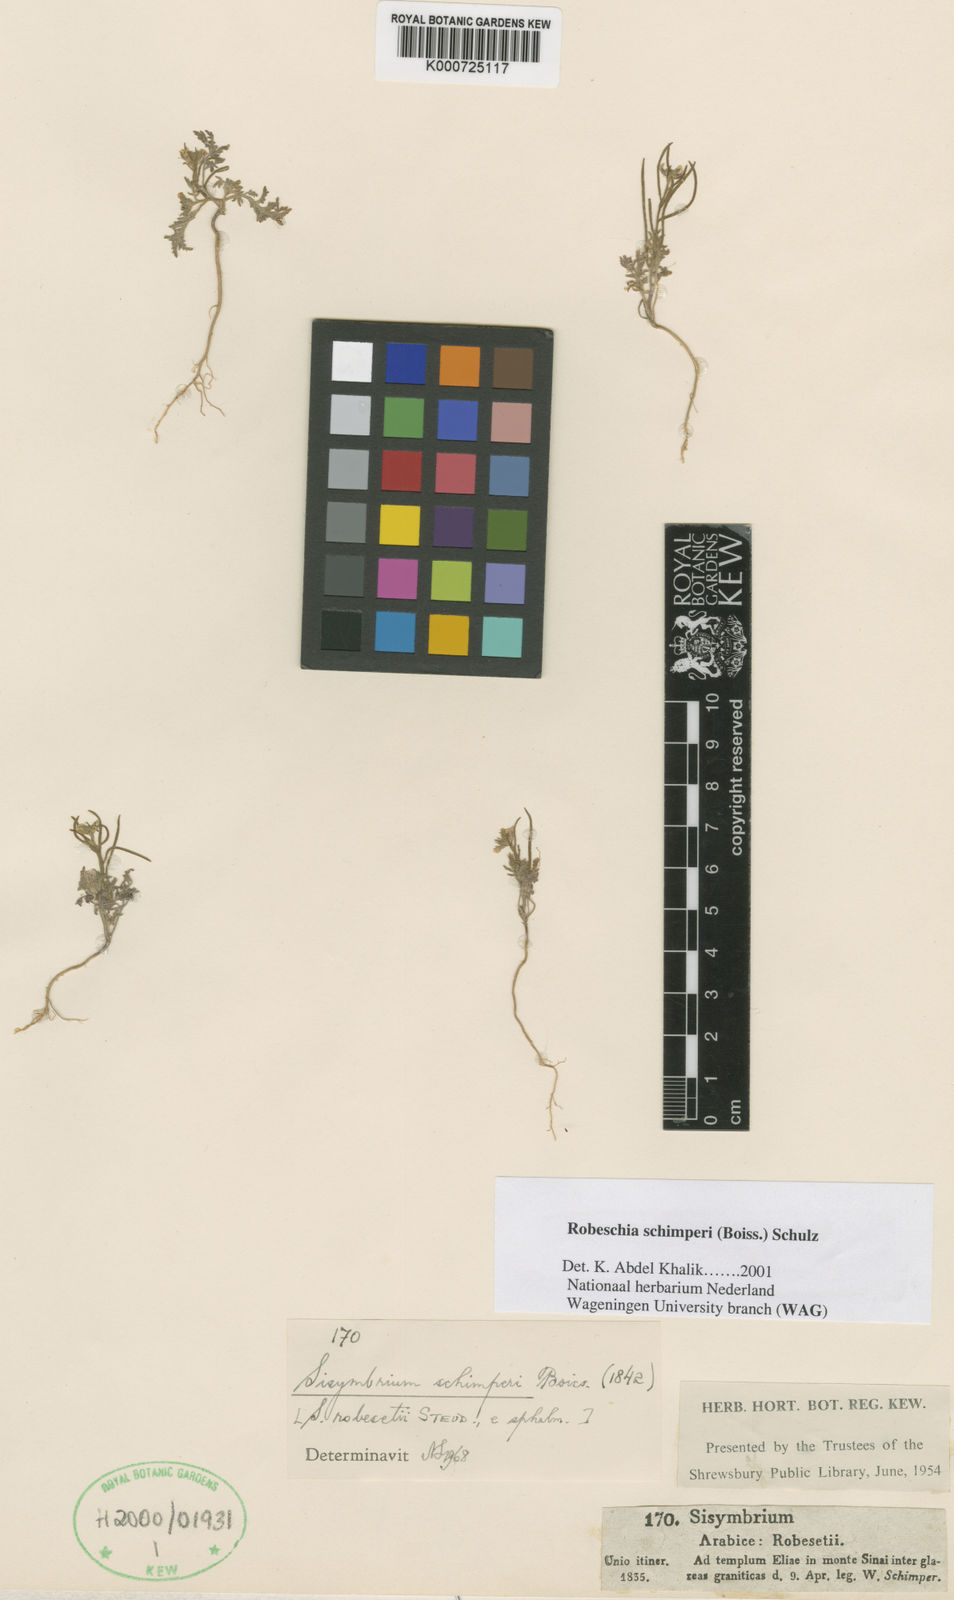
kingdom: Plantae
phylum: Tracheophyta
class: Magnoliopsida
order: Brassicales
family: Brassicaceae
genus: Robeschia
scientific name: Robeschia schimperi
